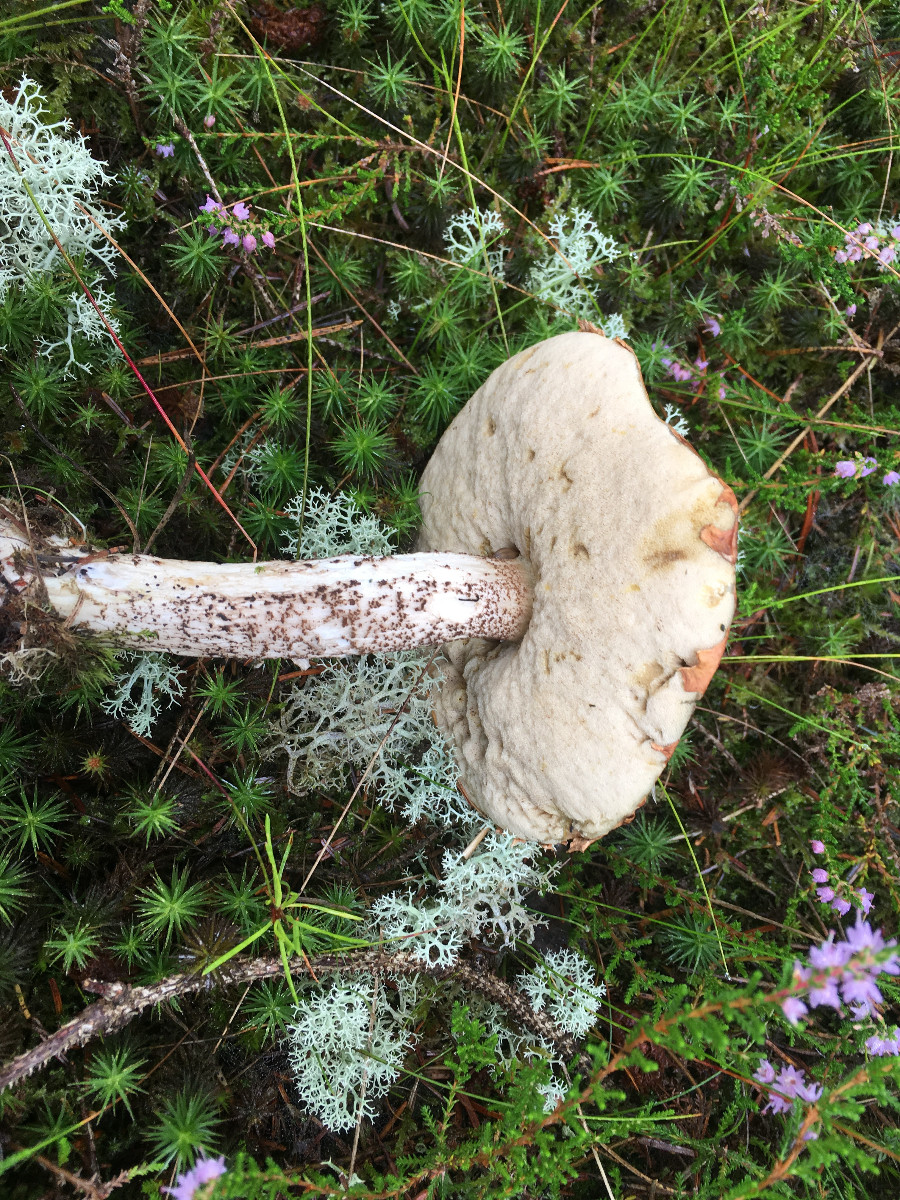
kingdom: Fungi
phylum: Basidiomycota
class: Agaricomycetes
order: Boletales
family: Boletaceae
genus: Leccinum
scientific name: Leccinum
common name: skælrørhat
